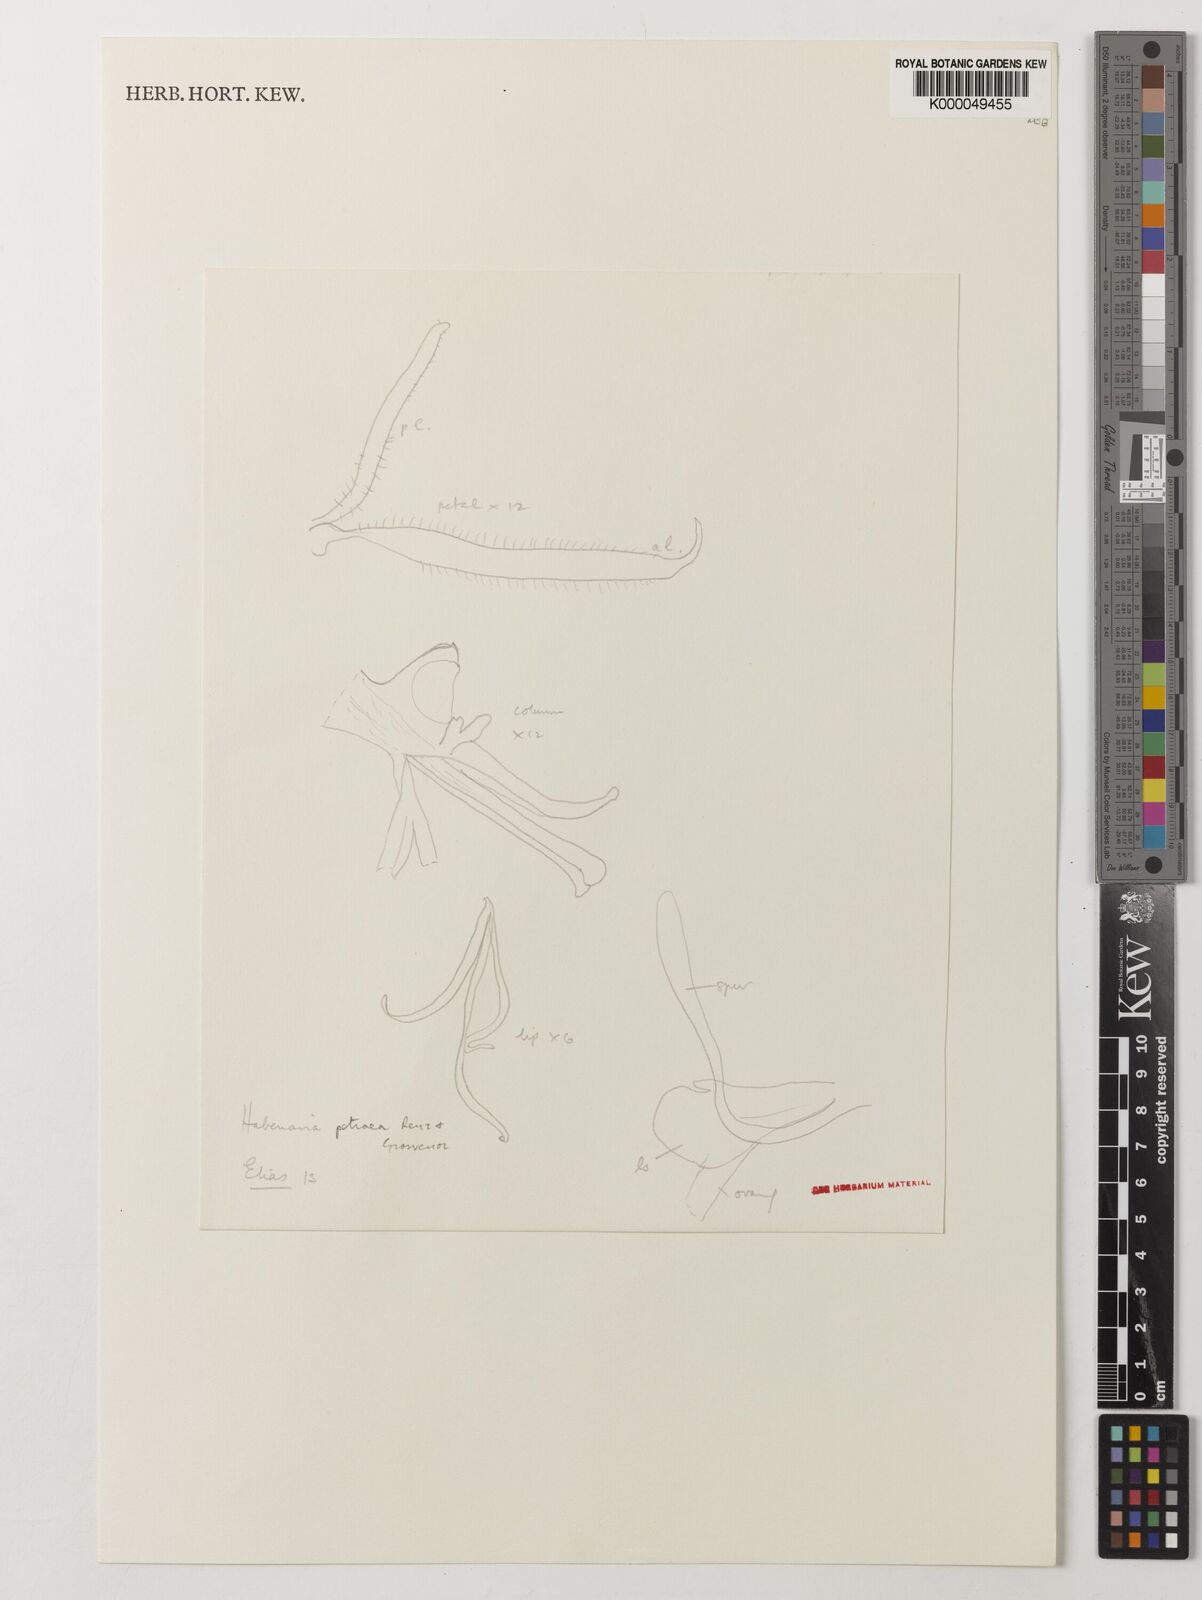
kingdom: Plantae
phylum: Tracheophyta
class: Liliopsida
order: Asparagales
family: Orchidaceae
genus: Habenaria
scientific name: Habenaria petraea
